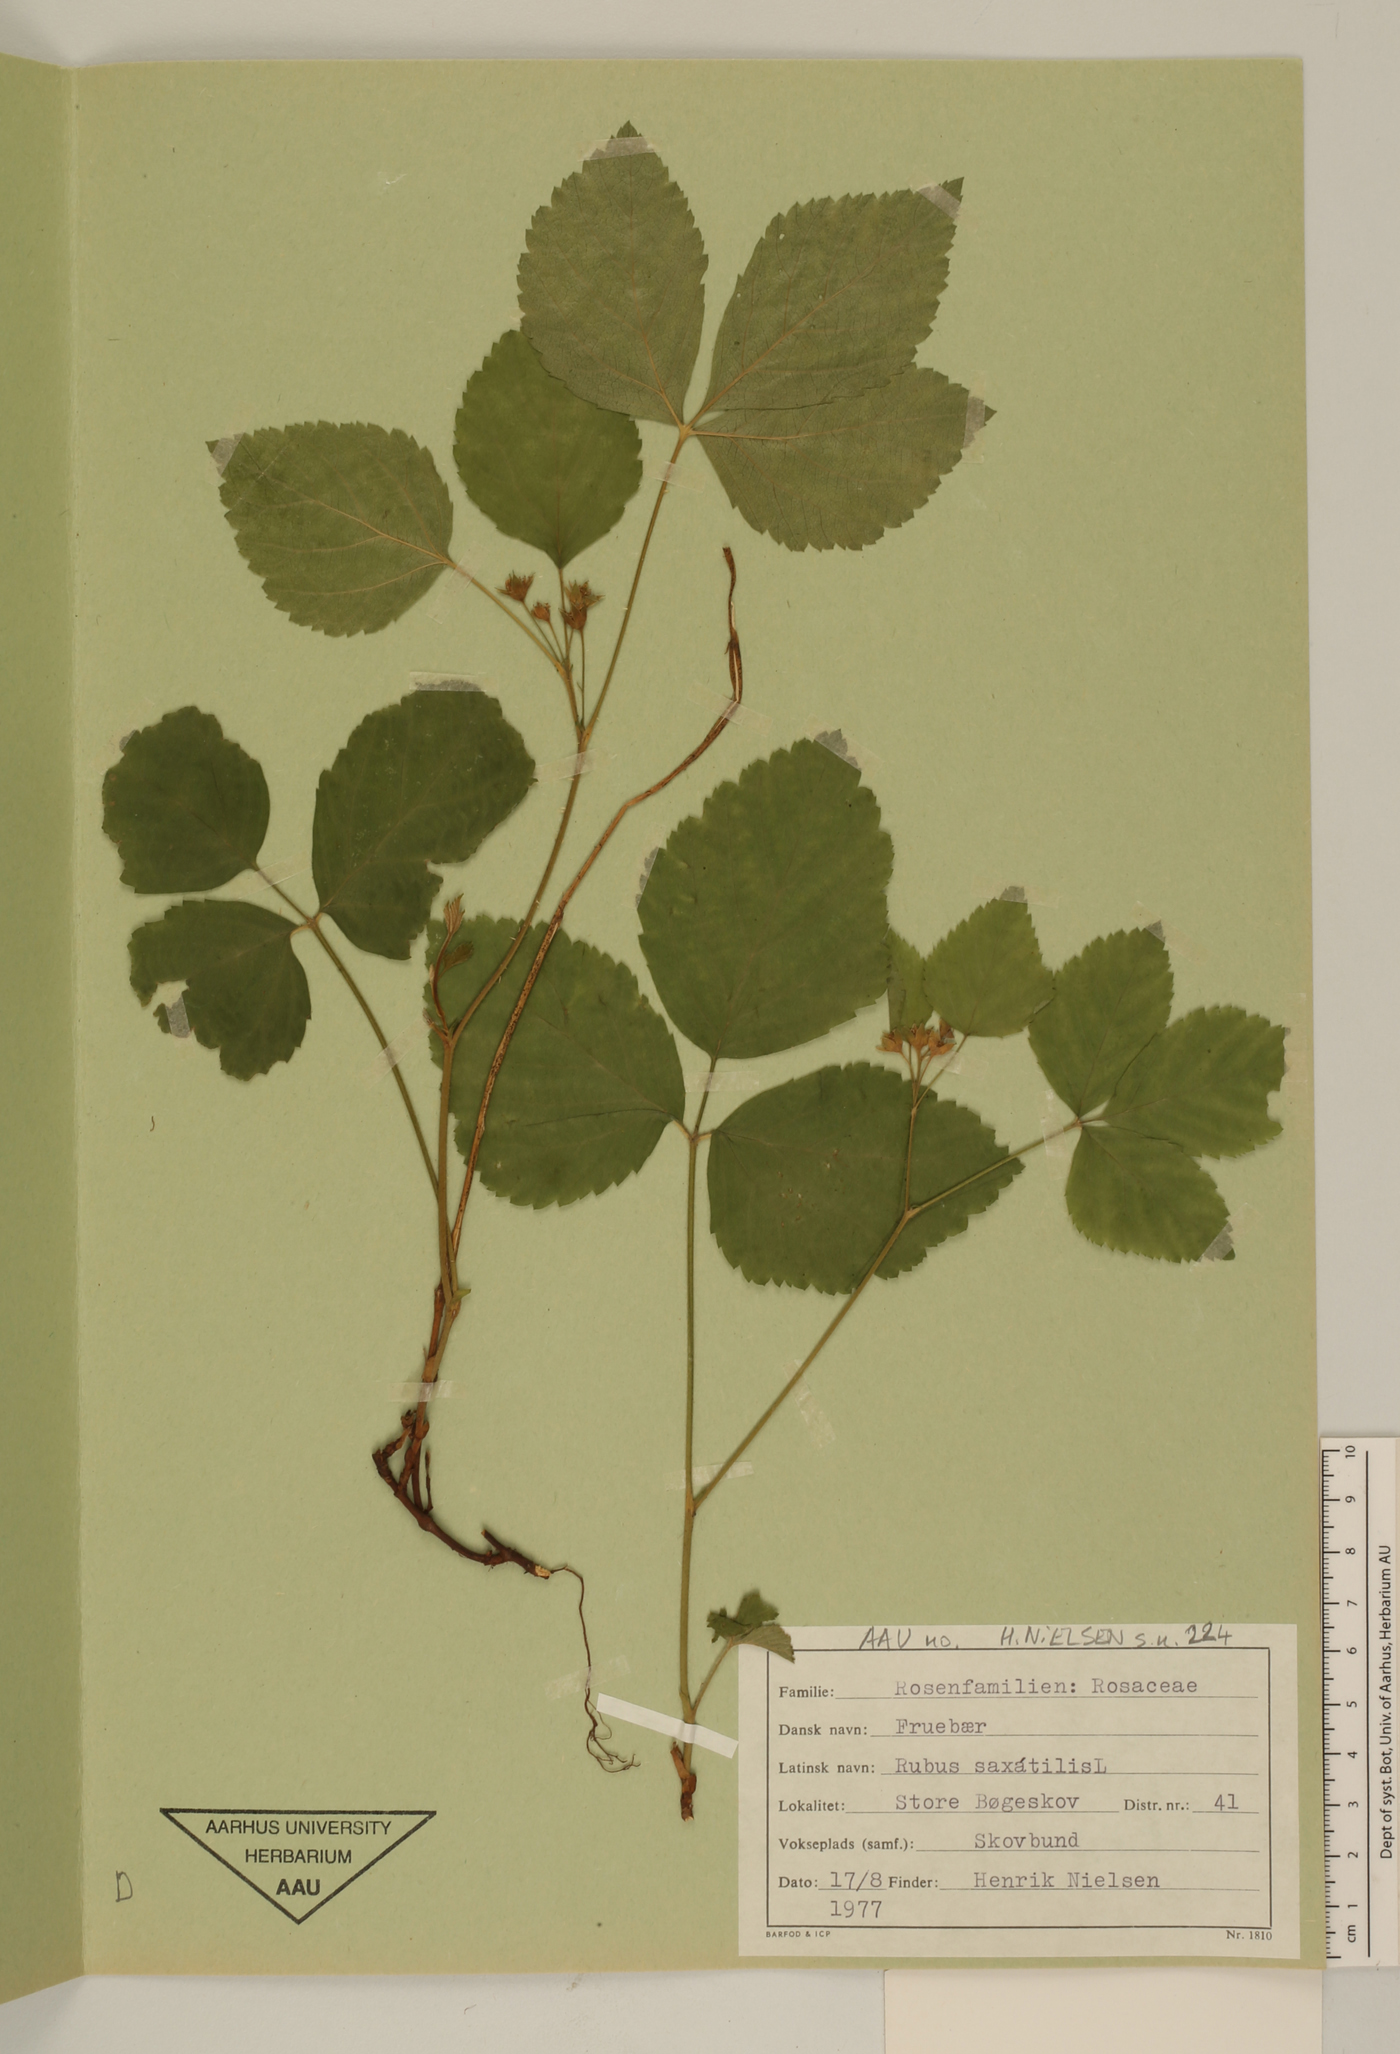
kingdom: Plantae
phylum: Tracheophyta
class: Magnoliopsida
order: Rosales
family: Rosaceae
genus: Rubus
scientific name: Rubus saxatilis
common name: Stone bramble
